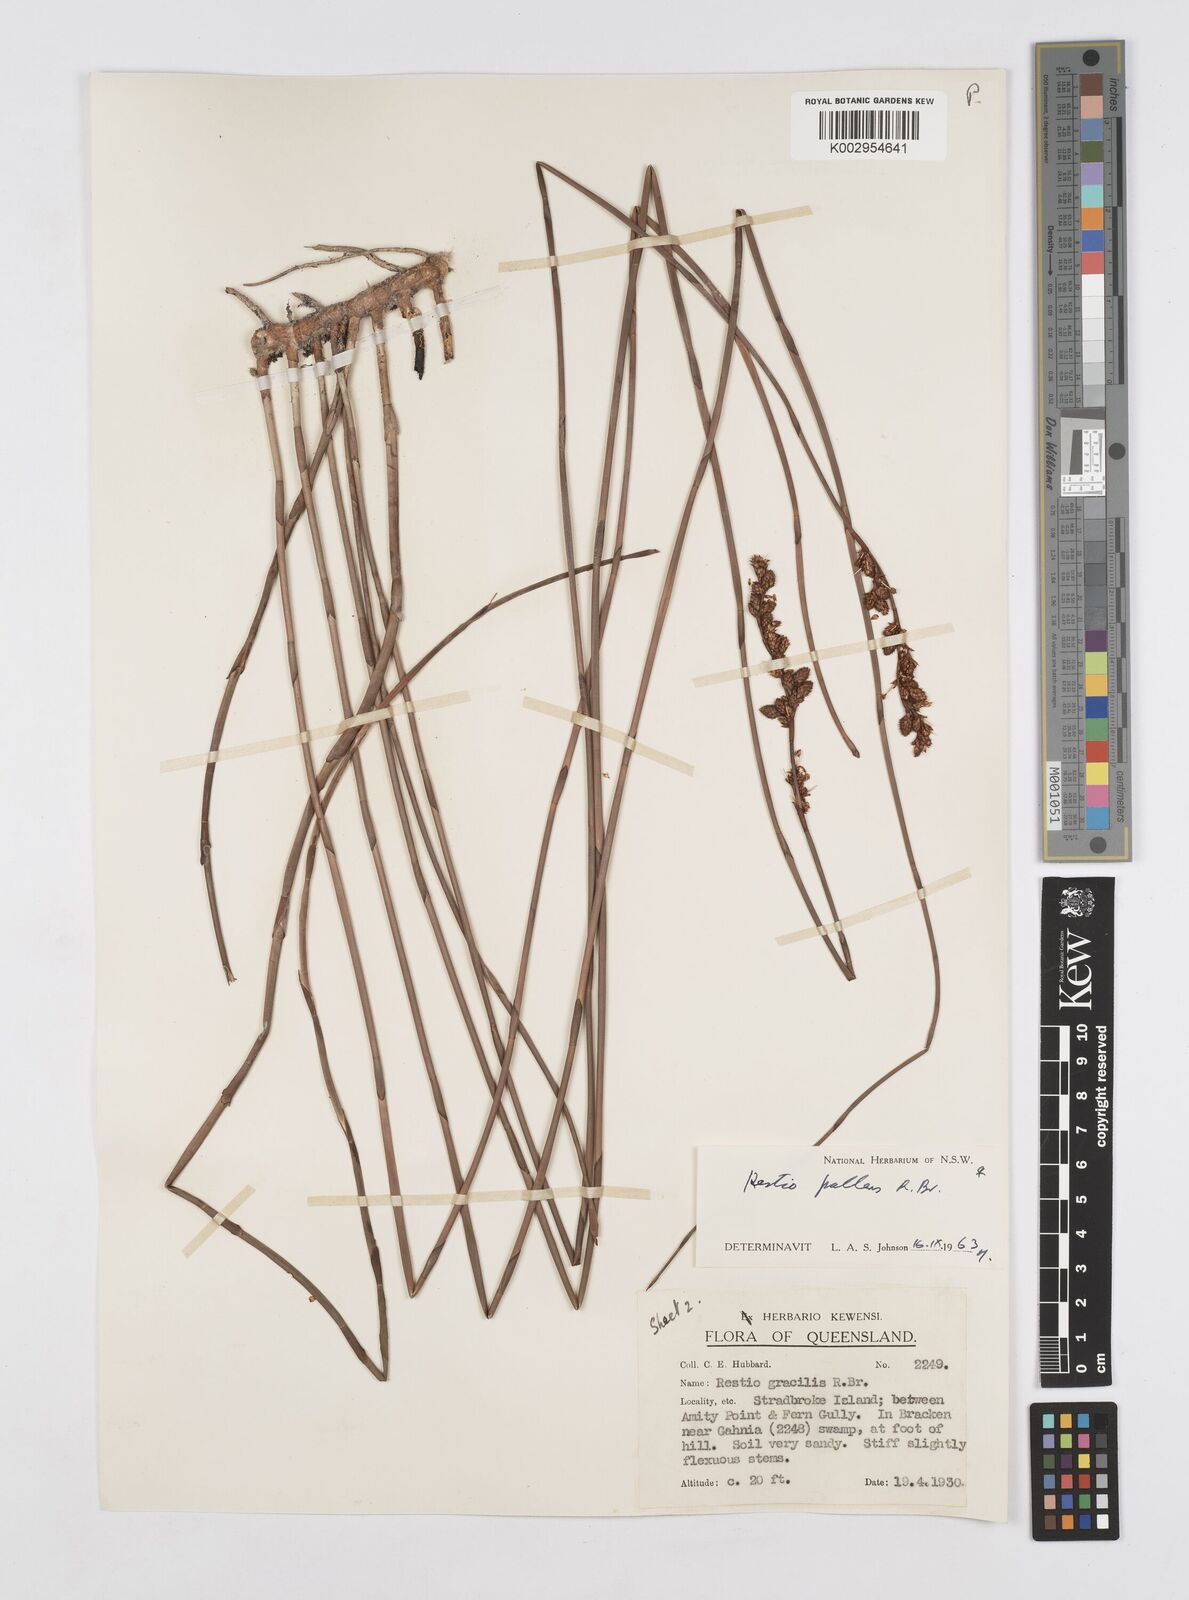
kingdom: Plantae
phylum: Tracheophyta
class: Liliopsida
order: Poales
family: Restionaceae
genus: Baloskion
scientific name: Baloskion pallens
